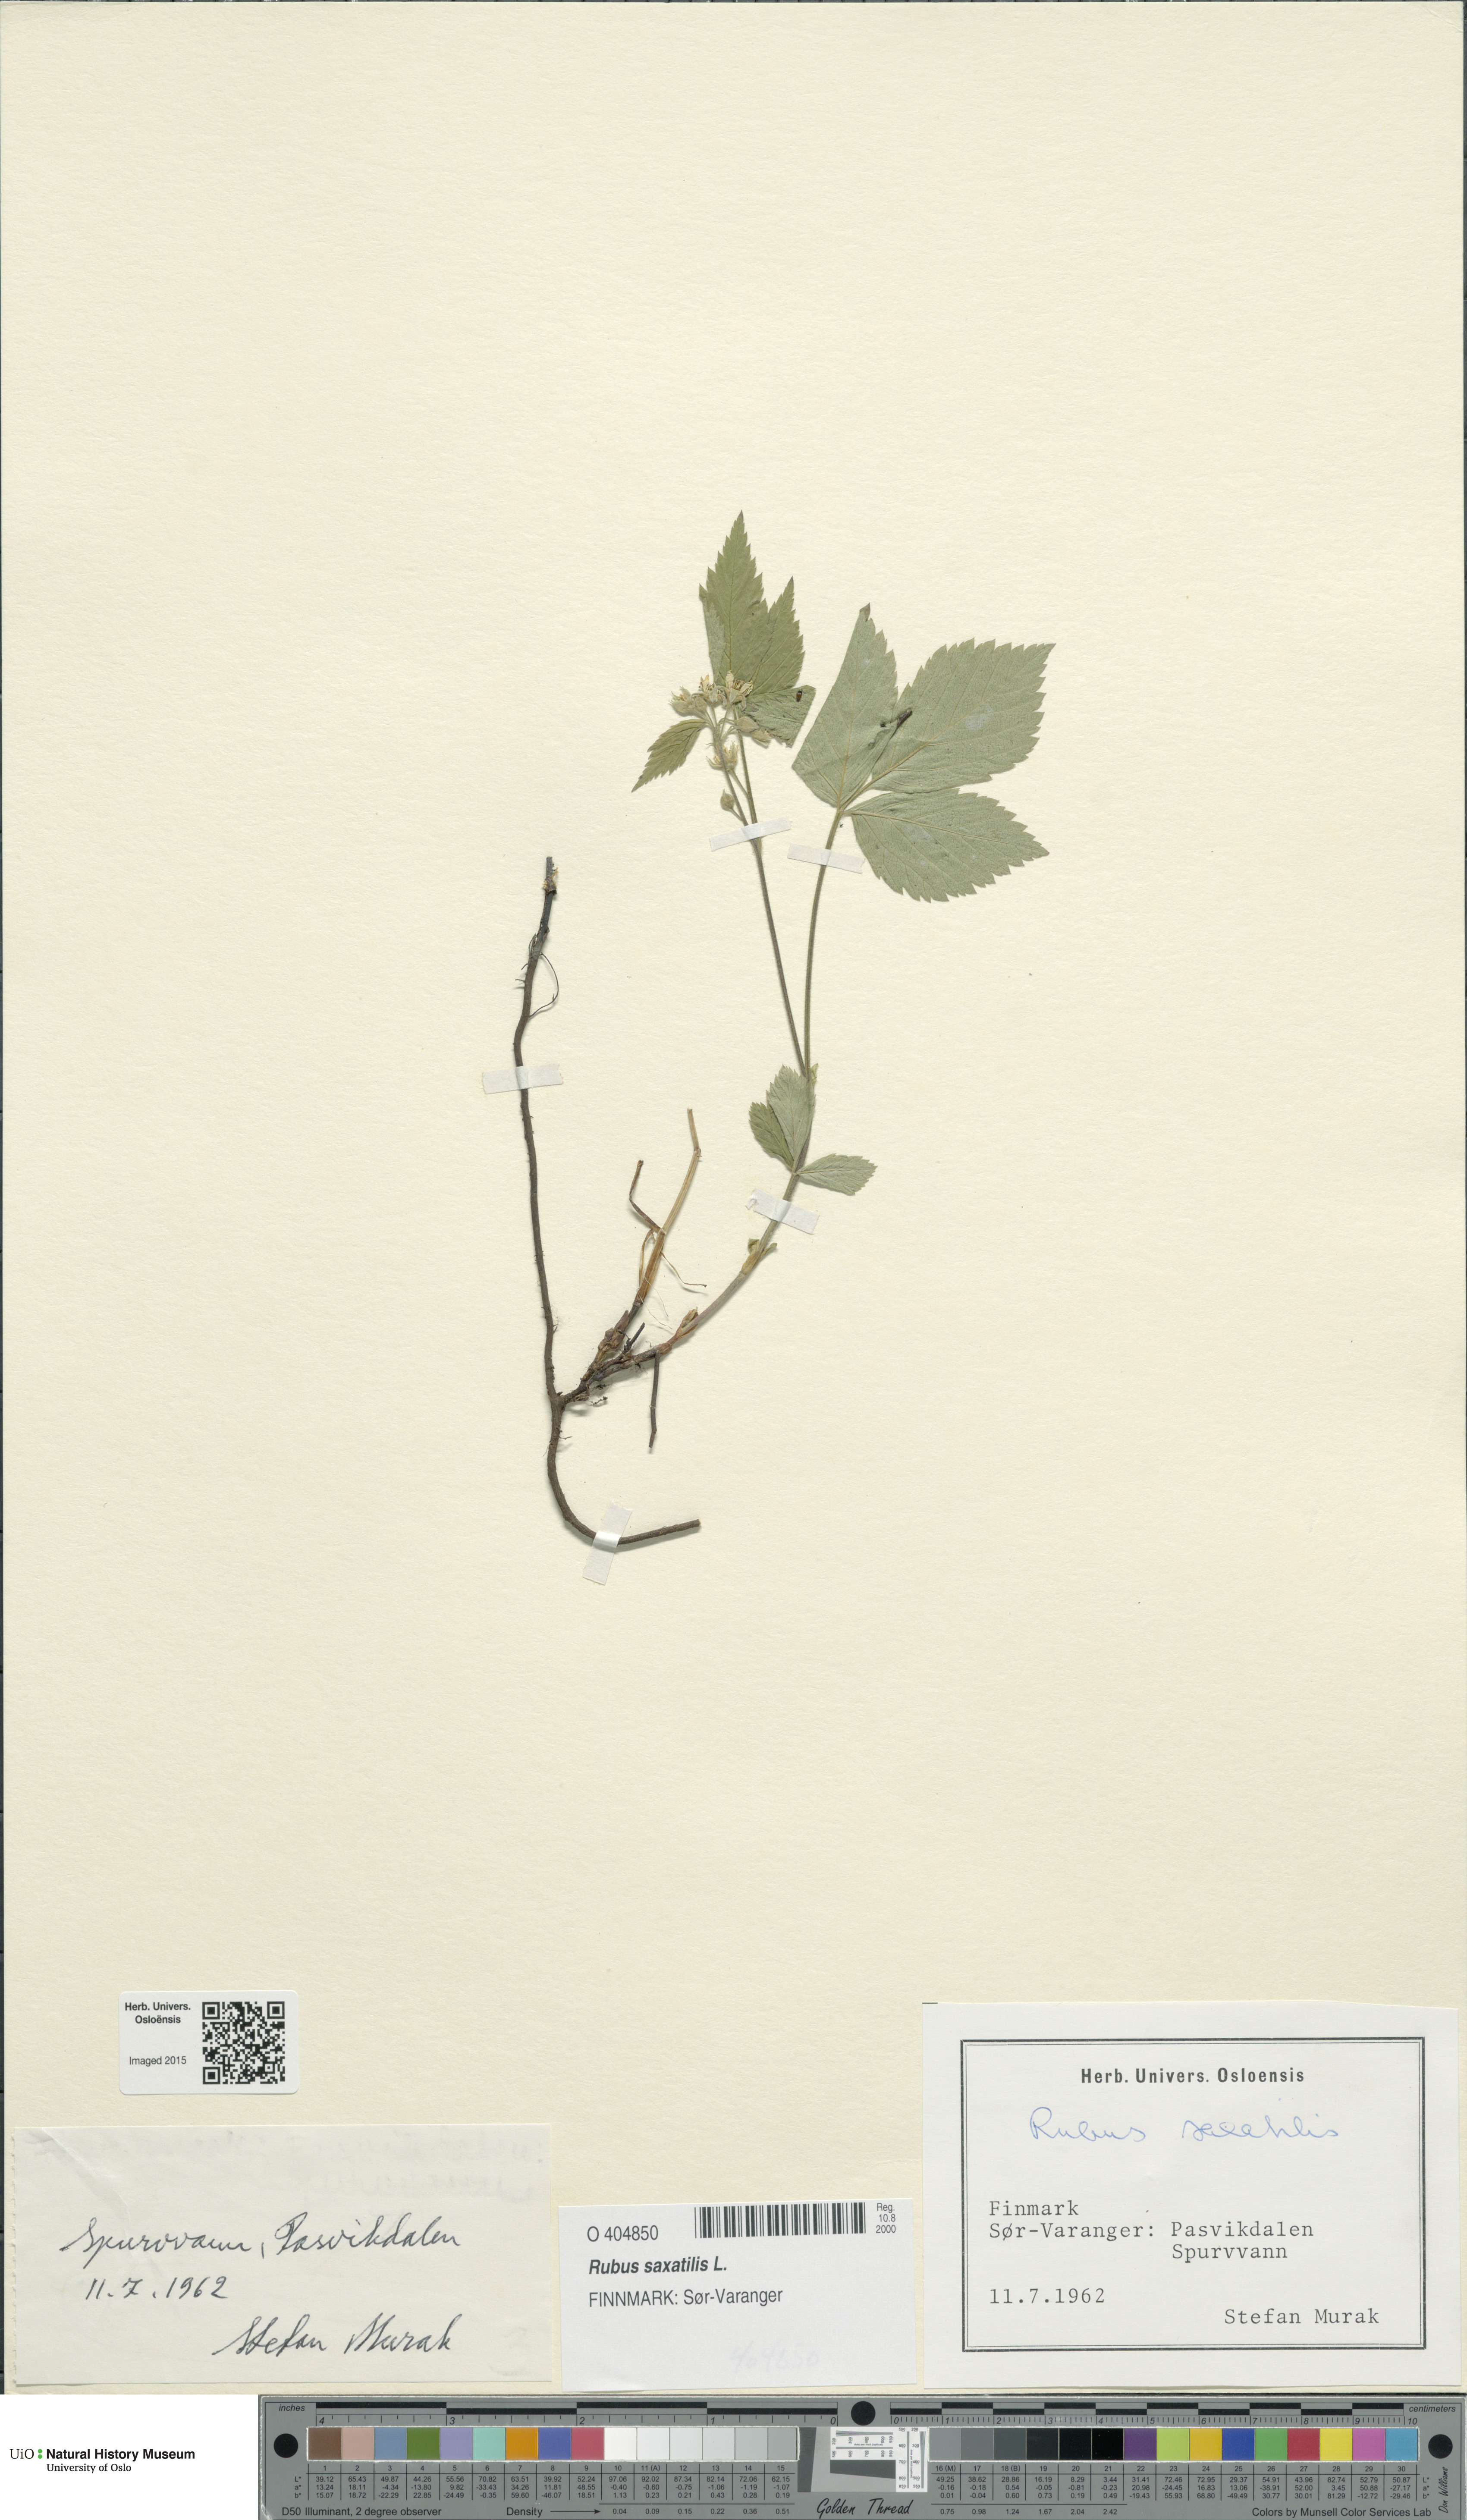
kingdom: Plantae
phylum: Tracheophyta
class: Magnoliopsida
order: Rosales
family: Rosaceae
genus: Rubus
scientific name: Rubus saxatilis
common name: Stone bramble
